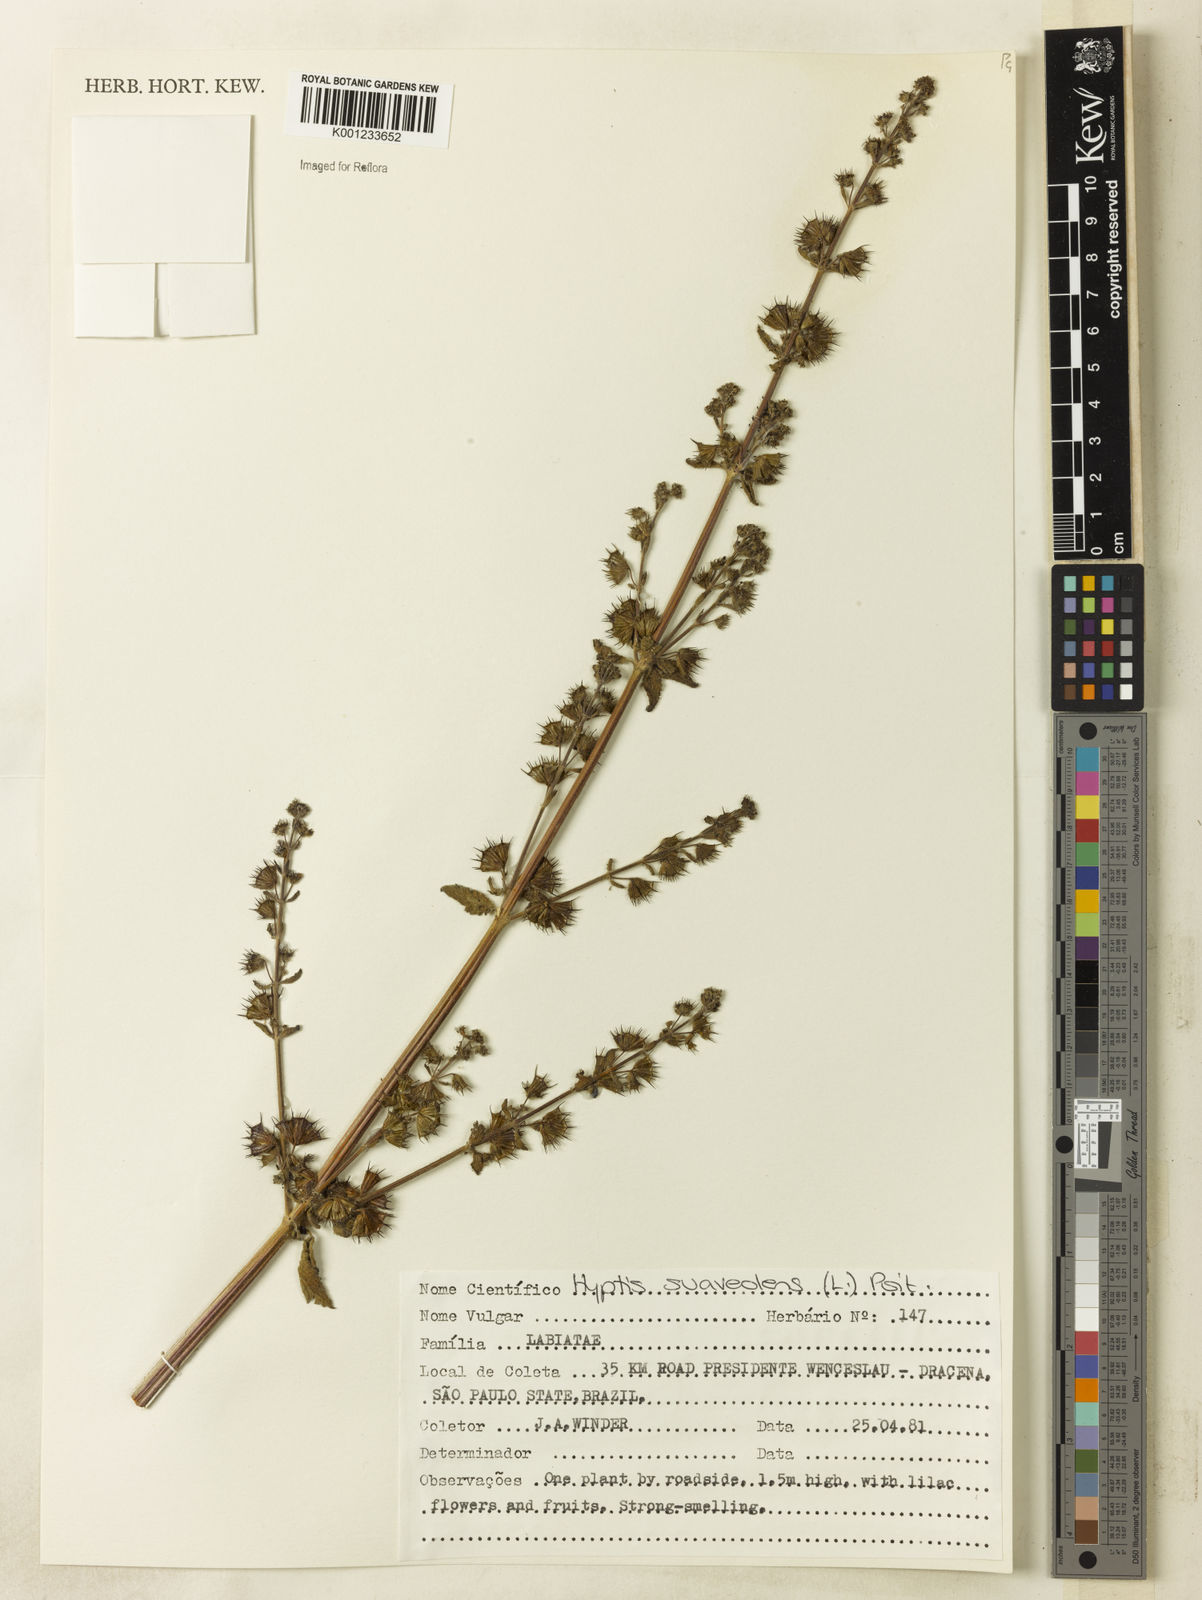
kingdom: Plantae
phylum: Tracheophyta
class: Magnoliopsida
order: Lamiales
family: Lamiaceae
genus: Mesosphaerum
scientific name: Mesosphaerum suaveolens
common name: Pignut
